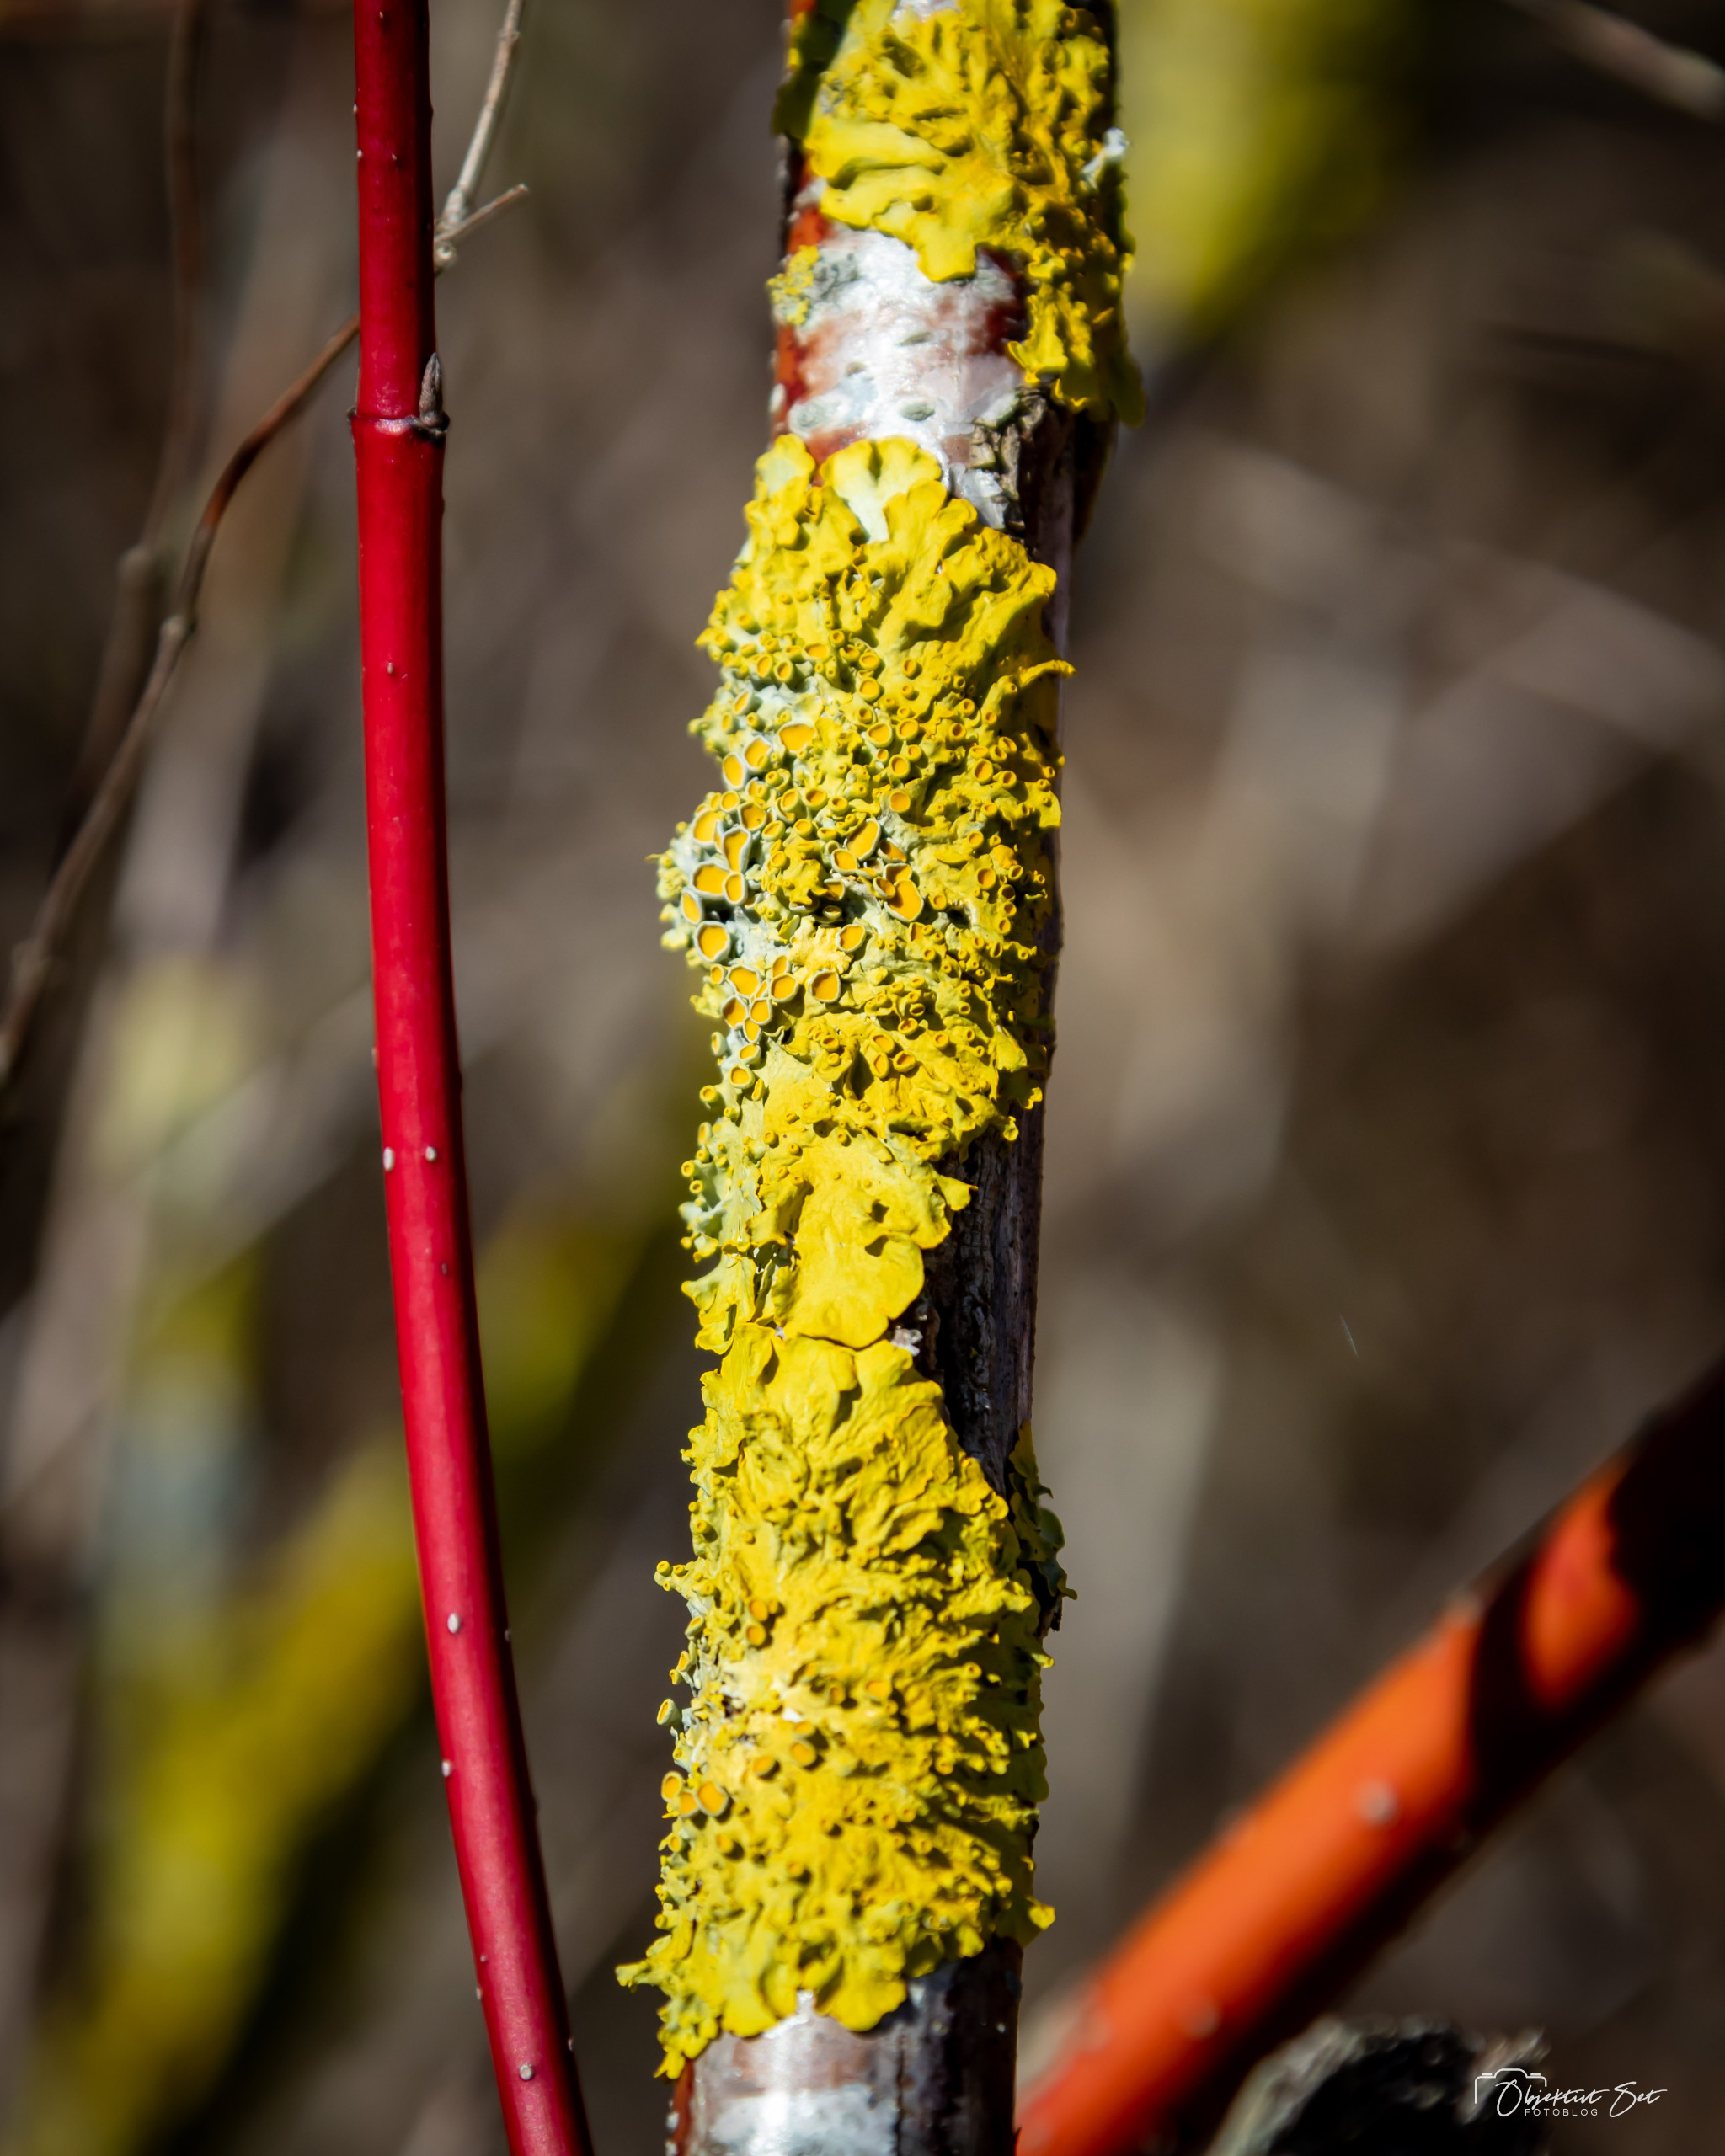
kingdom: Fungi
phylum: Ascomycota
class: Lecanoromycetes
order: Teloschistales
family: Teloschistaceae
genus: Xanthoria
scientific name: Xanthoria parietina
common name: Almindelig væggelav
